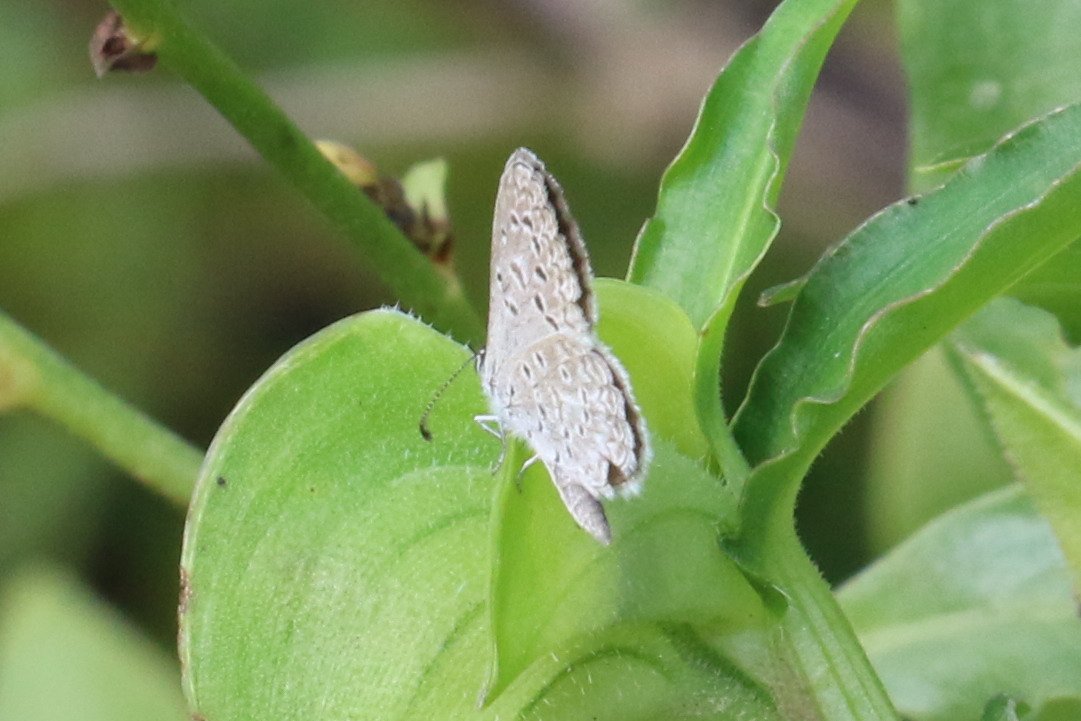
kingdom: Animalia
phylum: Arthropoda
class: Insecta
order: Lepidoptera
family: Lycaenidae
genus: Lycaena
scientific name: Lycaena cyna
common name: Cyna Blue
